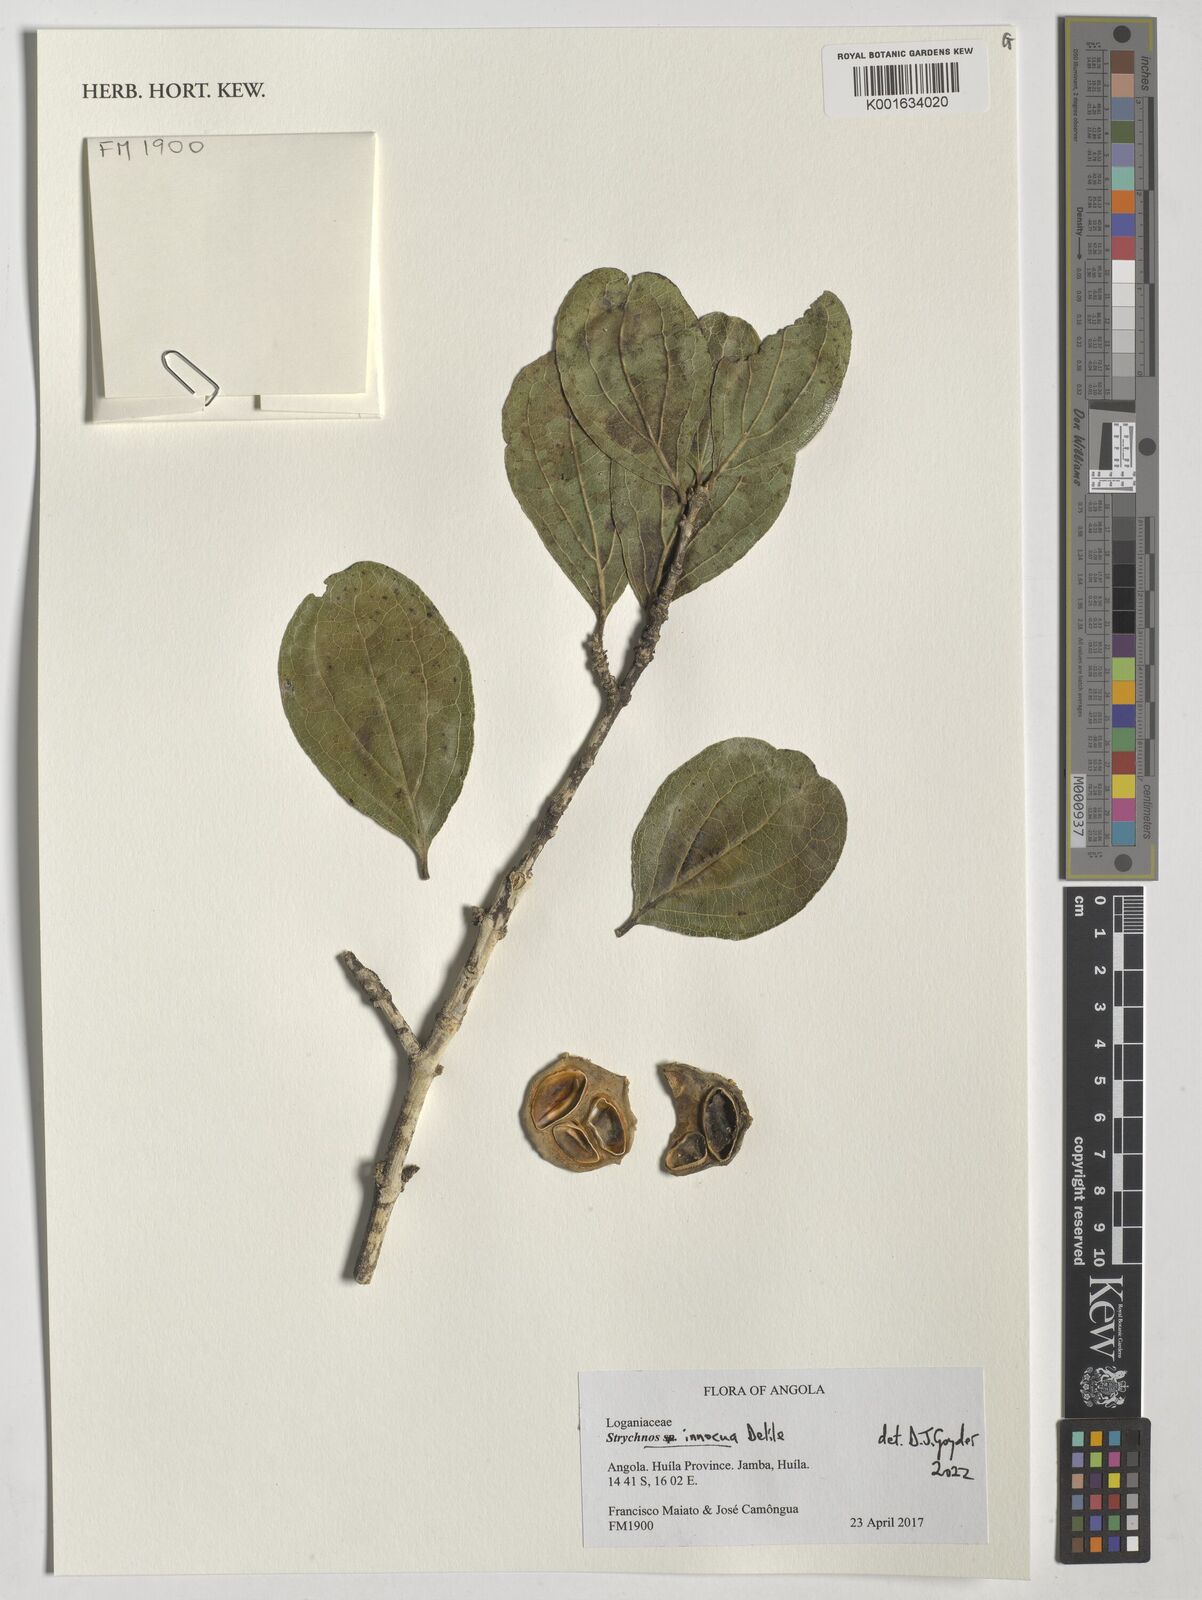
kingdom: Plantae
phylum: Tracheophyta
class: Magnoliopsida
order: Gentianales
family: Loganiaceae
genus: Strychnos
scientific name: Strychnos innocua
